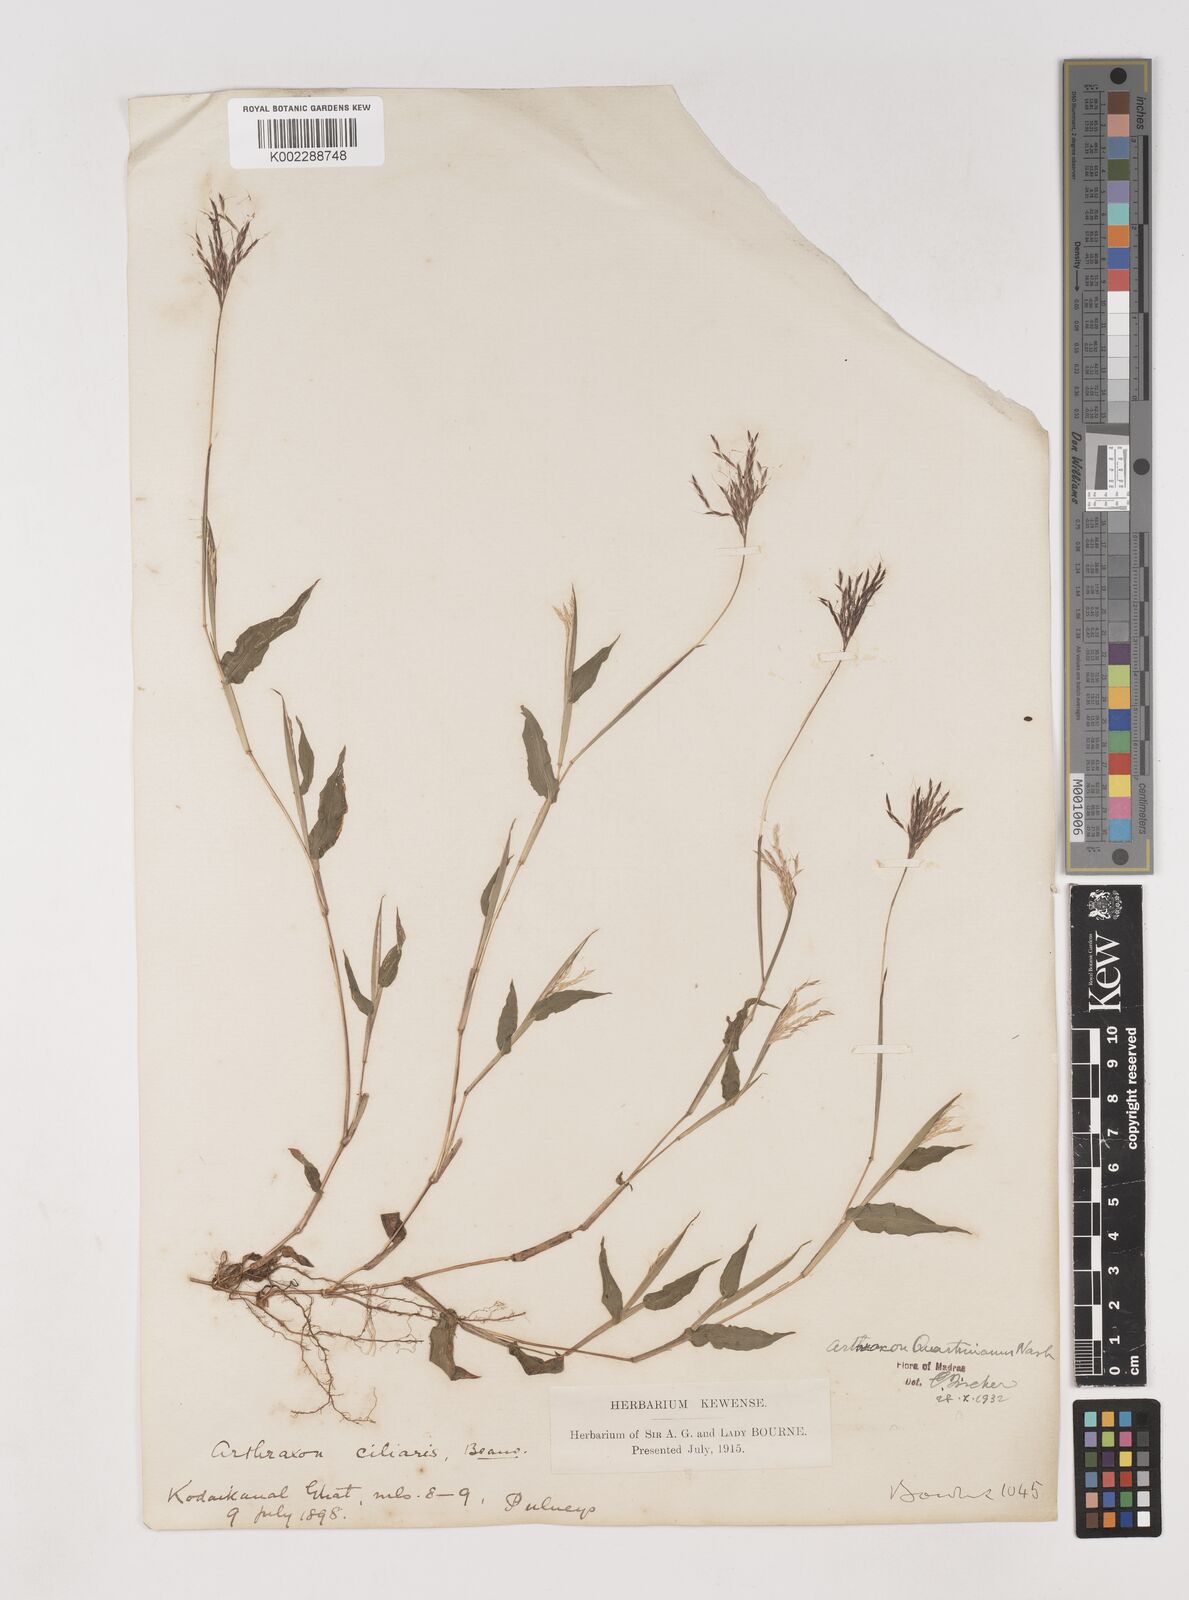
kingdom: Plantae
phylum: Tracheophyta
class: Liliopsida
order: Poales
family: Poaceae
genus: Arthraxon
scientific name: Arthraxon hispidus
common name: Small carpgrass
